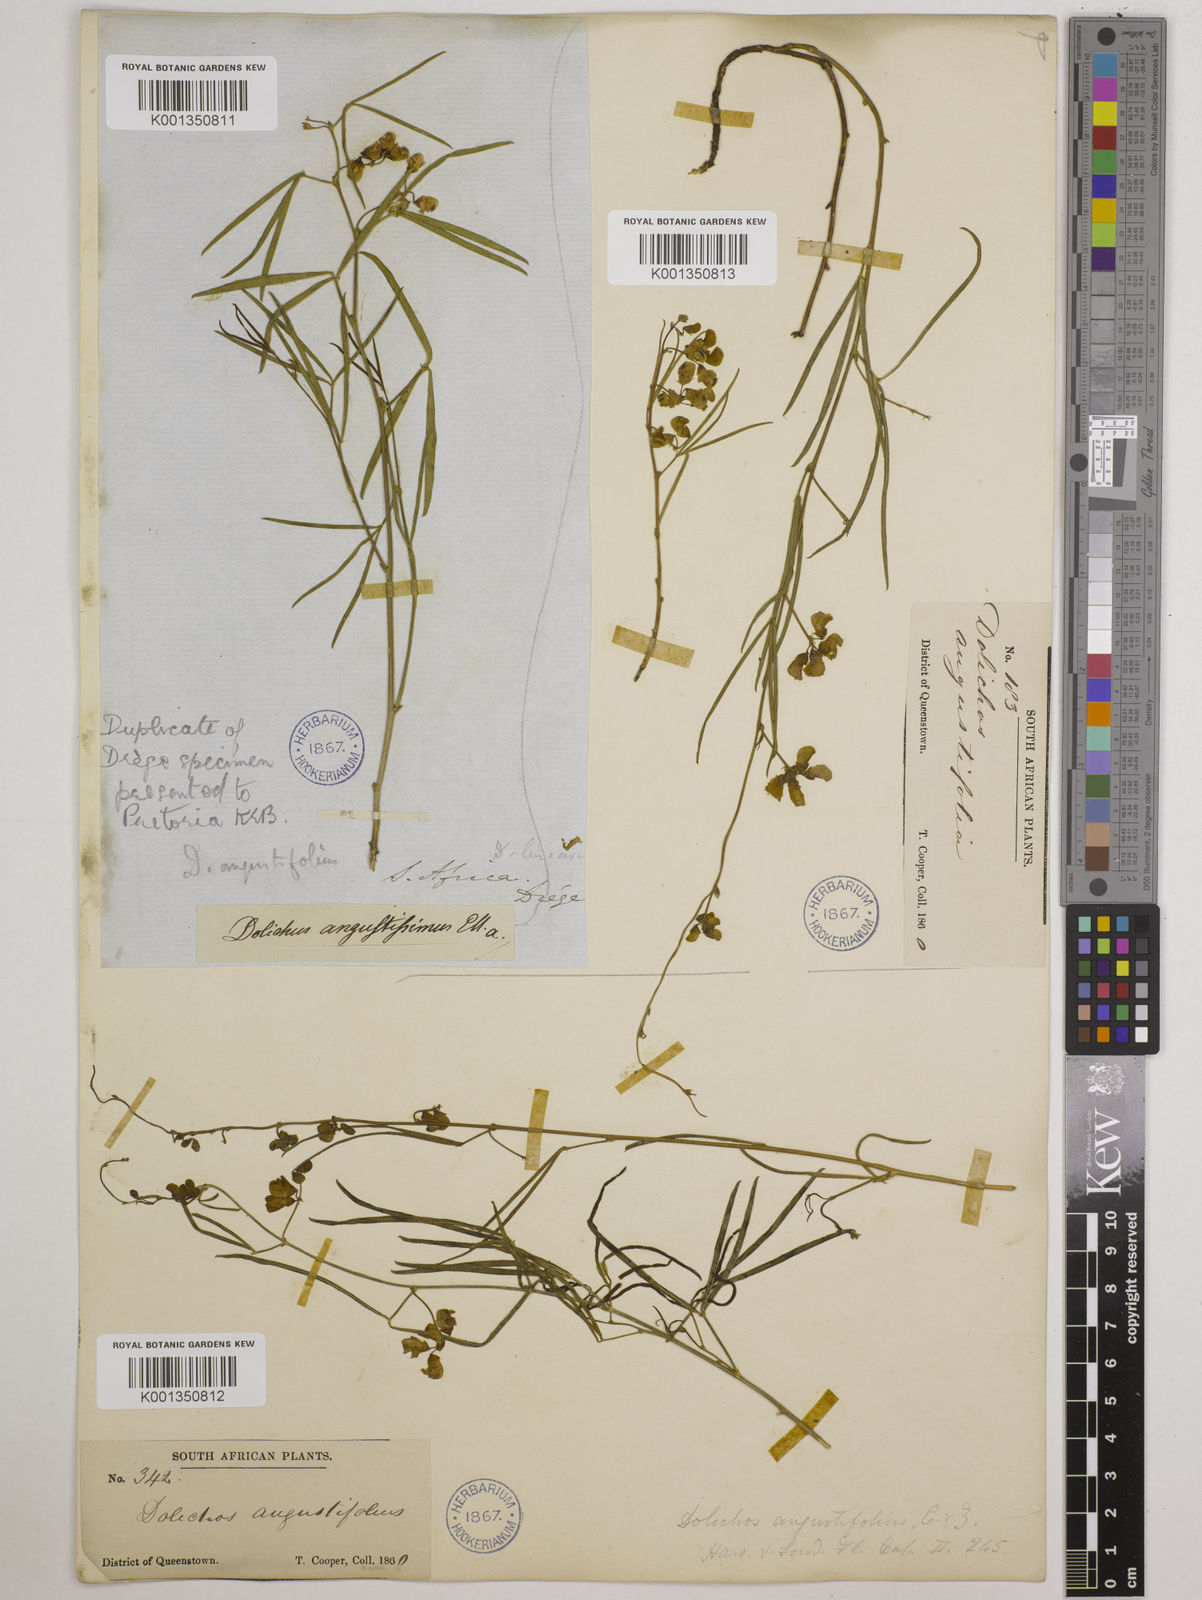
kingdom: Plantae
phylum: Tracheophyta
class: Magnoliopsida
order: Fabales
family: Fabaceae
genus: Dolichos
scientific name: Dolichos
